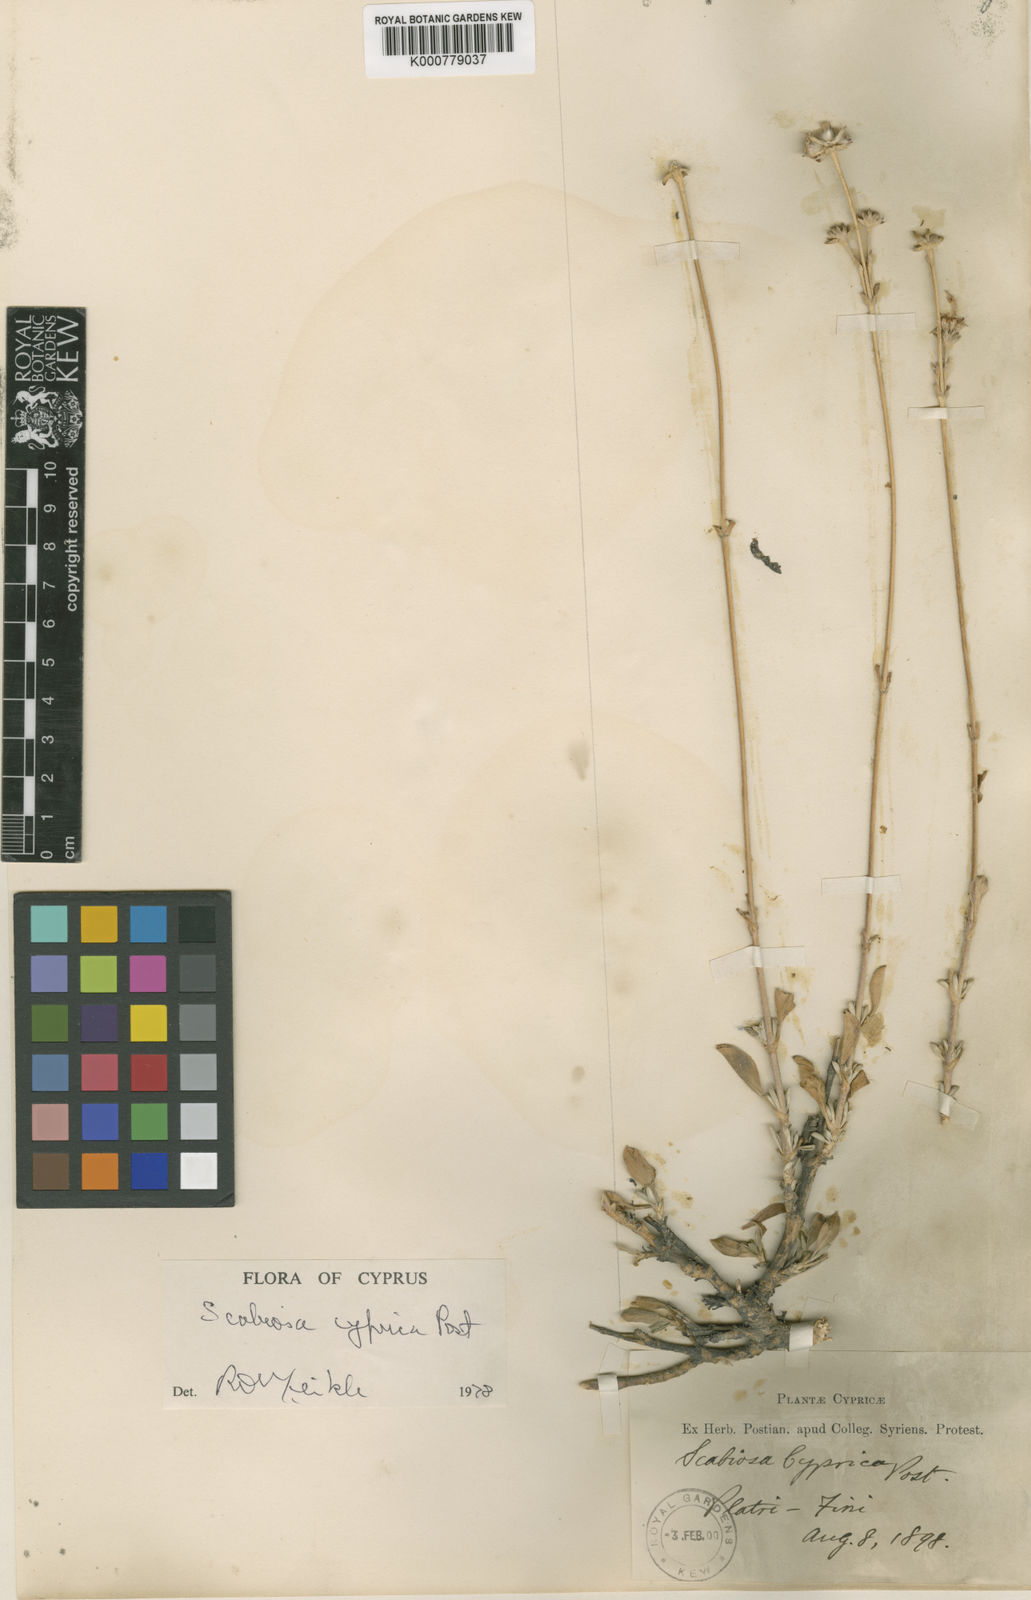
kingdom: Plantae
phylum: Tracheophyta
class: Magnoliopsida
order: Dipsacales
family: Caprifoliaceae
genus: Lomelosia
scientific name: Lomelosia cyprica
